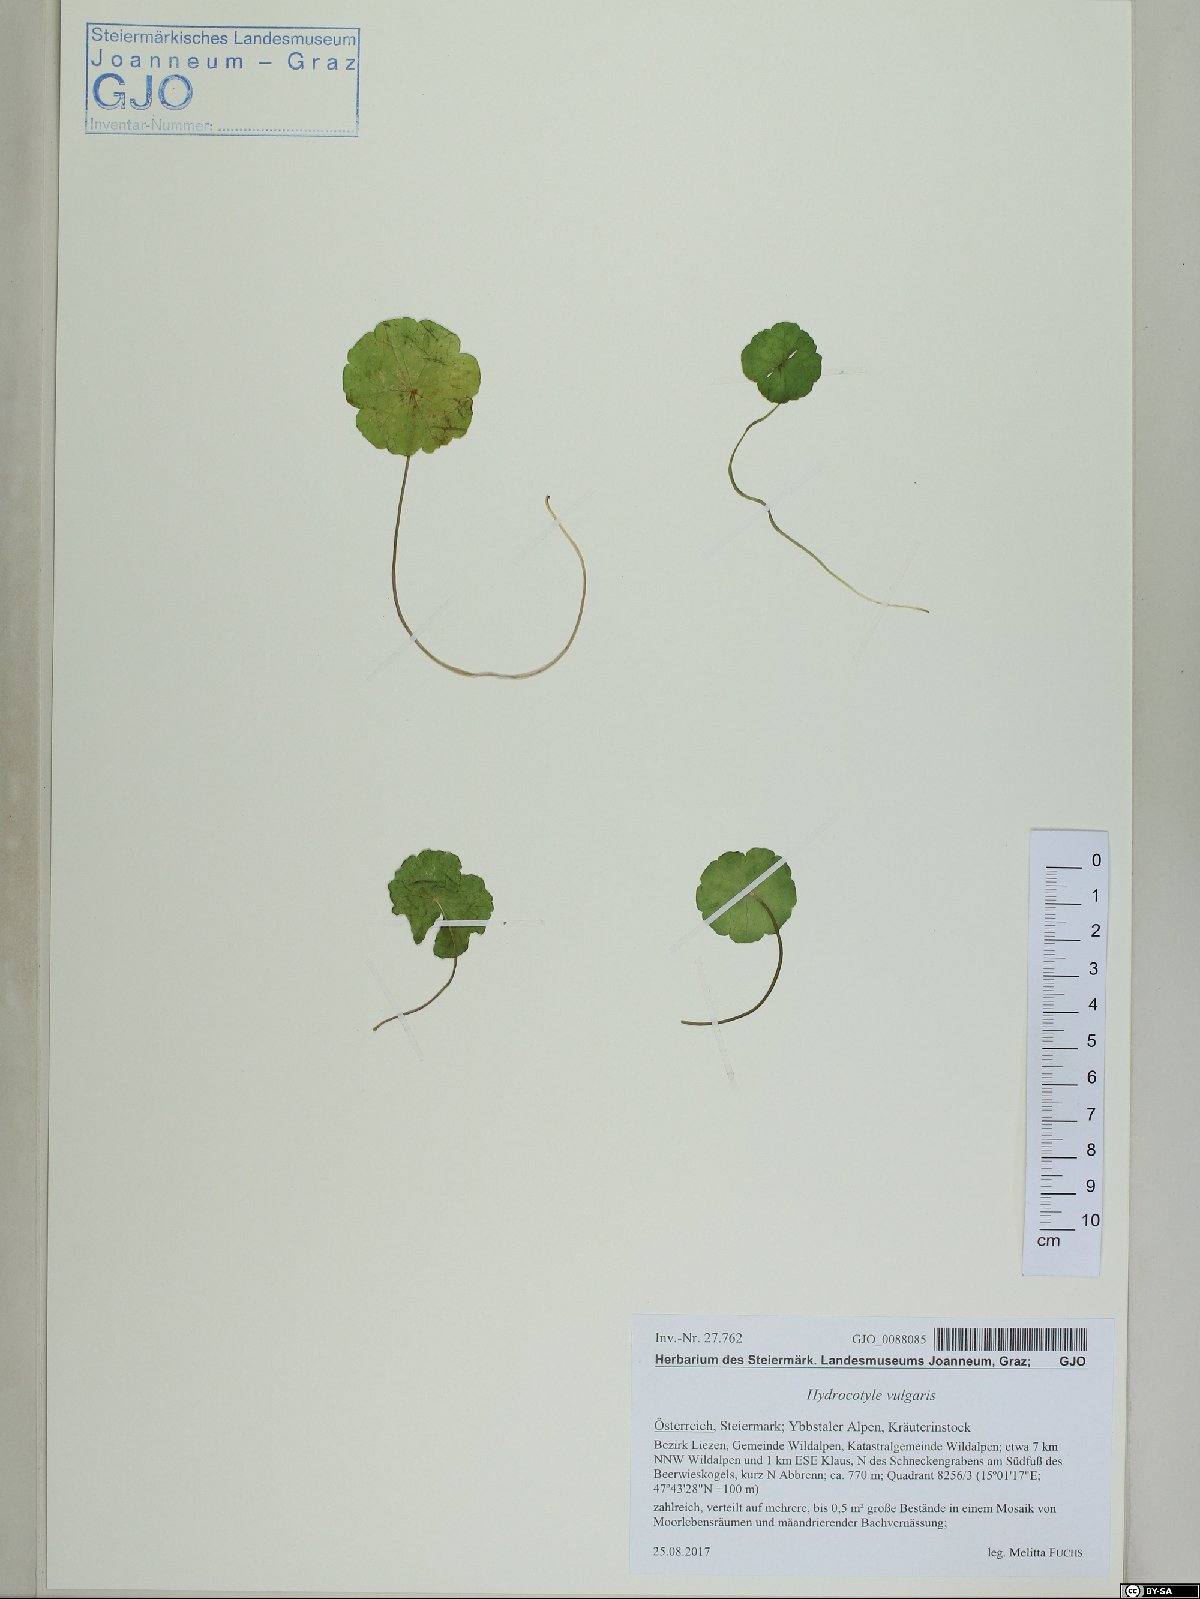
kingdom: Plantae
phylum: Tracheophyta
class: Magnoliopsida
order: Apiales
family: Araliaceae
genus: Hydrocotyle
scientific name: Hydrocotyle vulgaris
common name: Marsh pennywort
